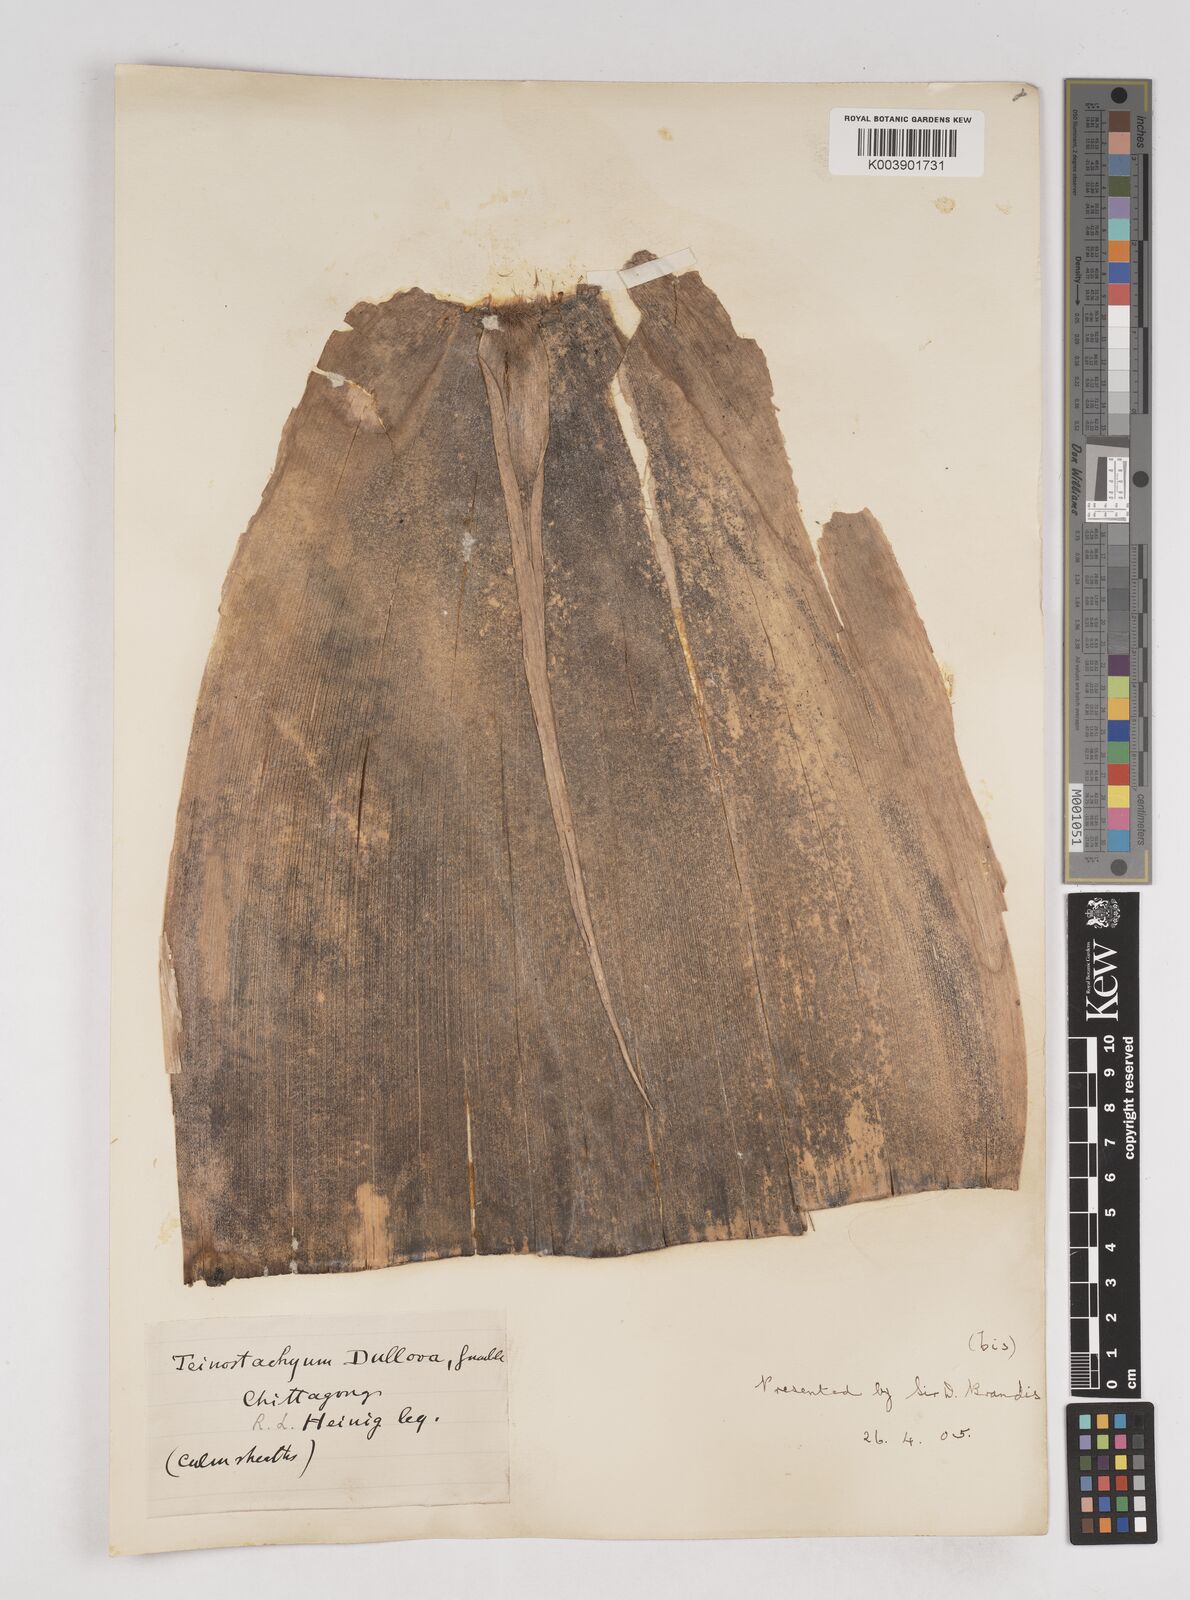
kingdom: Plantae
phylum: Tracheophyta
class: Liliopsida
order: Poales
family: Poaceae
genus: Schizostachyum
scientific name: Schizostachyum dullooa
